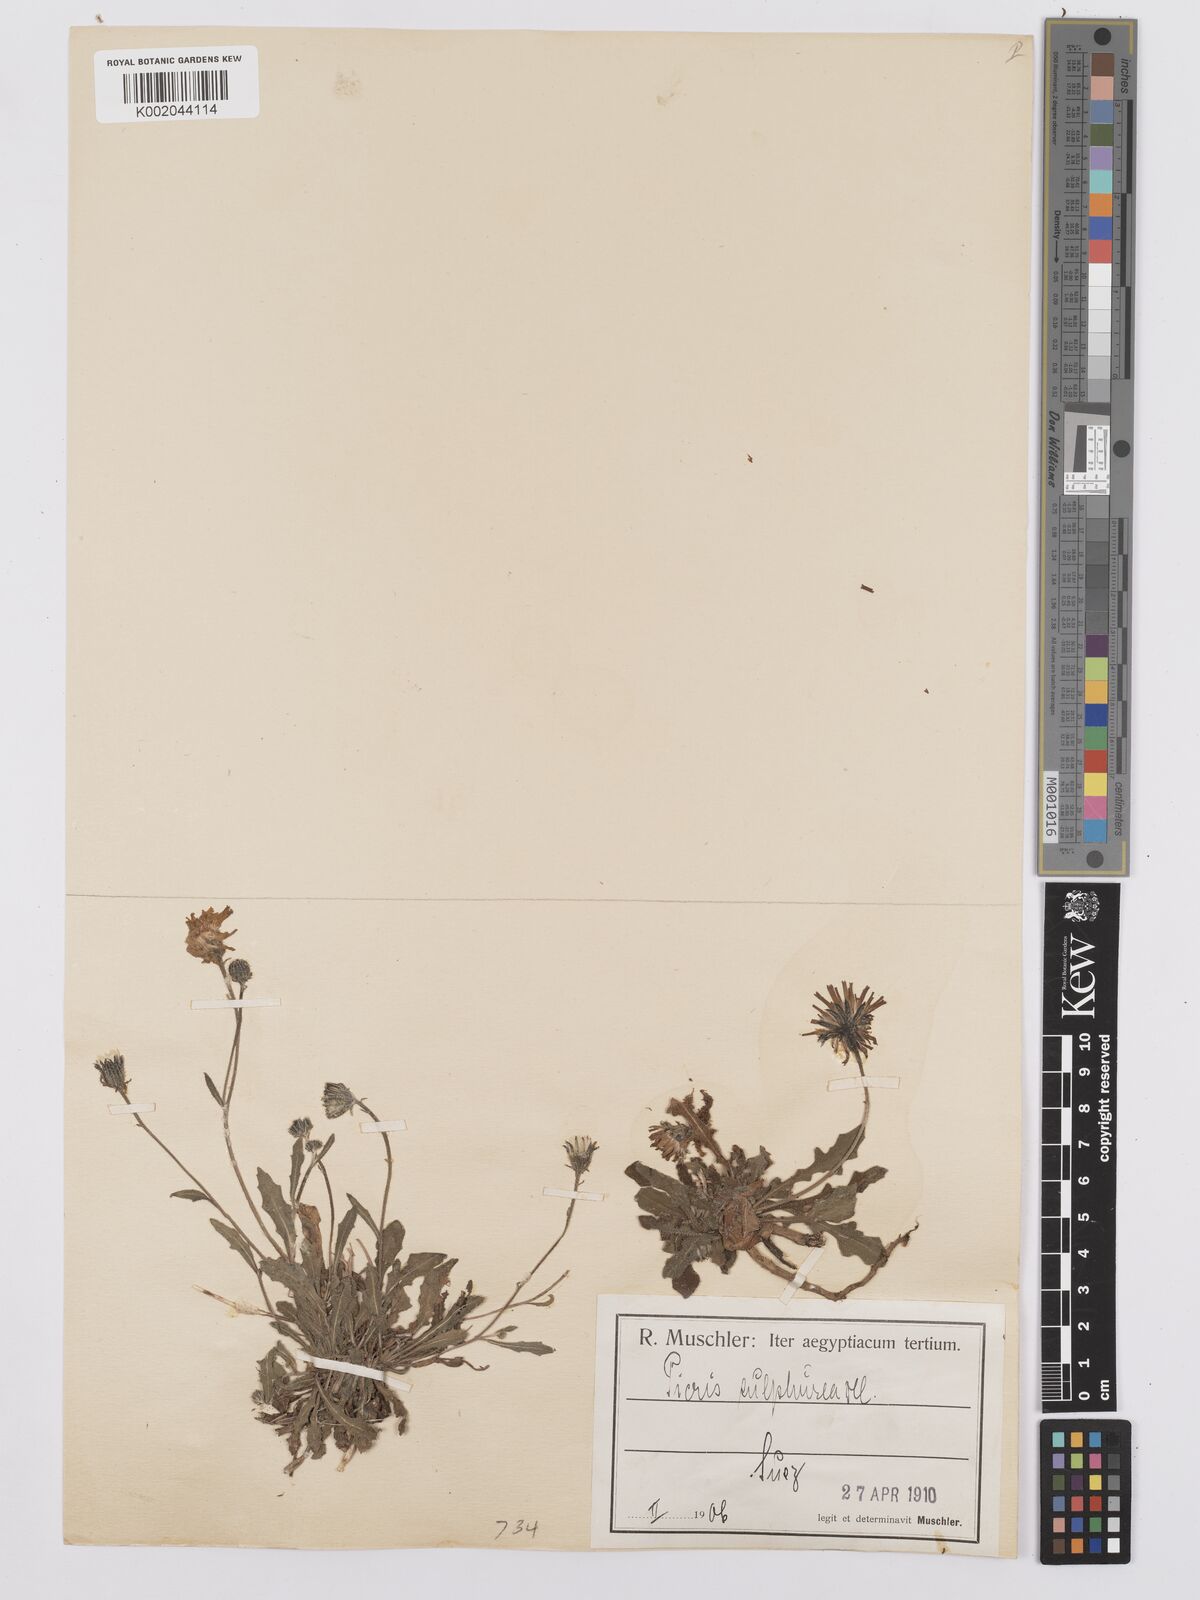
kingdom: Plantae
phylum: Tracheophyta
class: Magnoliopsida
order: Asterales
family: Asteraceae
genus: Picris
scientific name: Picris sulphurea
